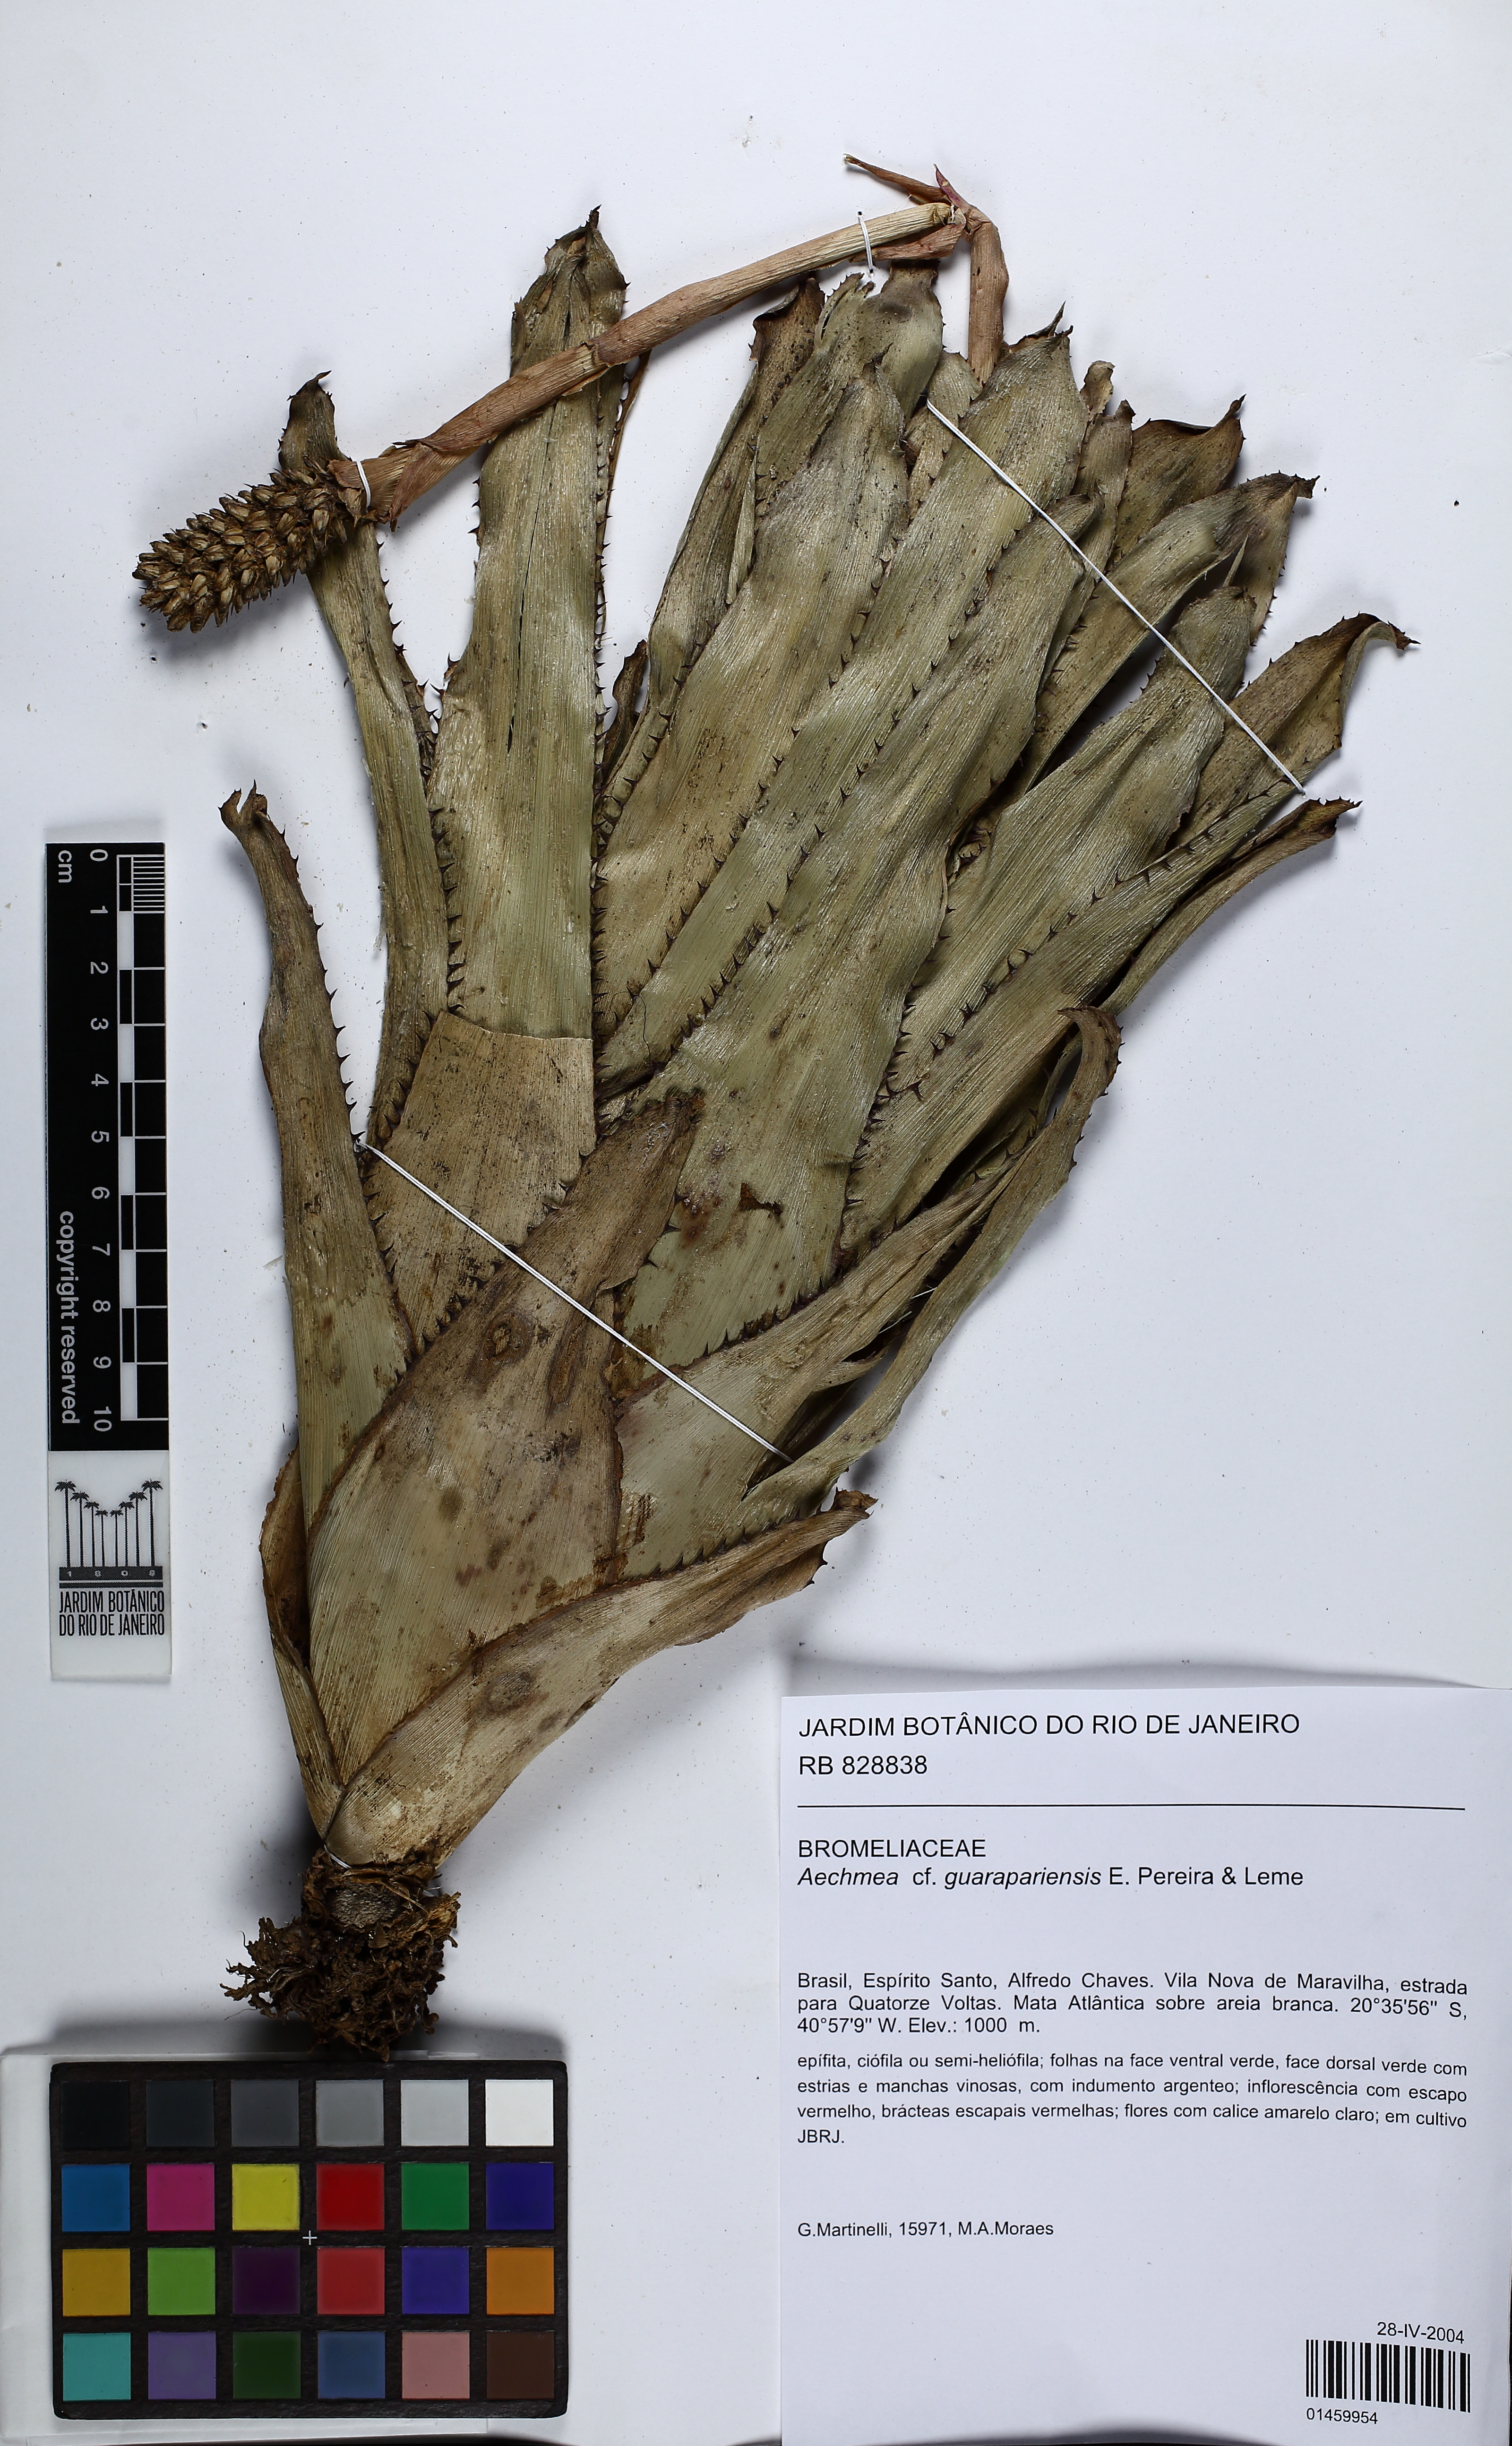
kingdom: Plantae
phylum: Tracheophyta
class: Liliopsida
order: Poales
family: Bromeliaceae
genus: Aechmea
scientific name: Aechmea roberto-seidelii
